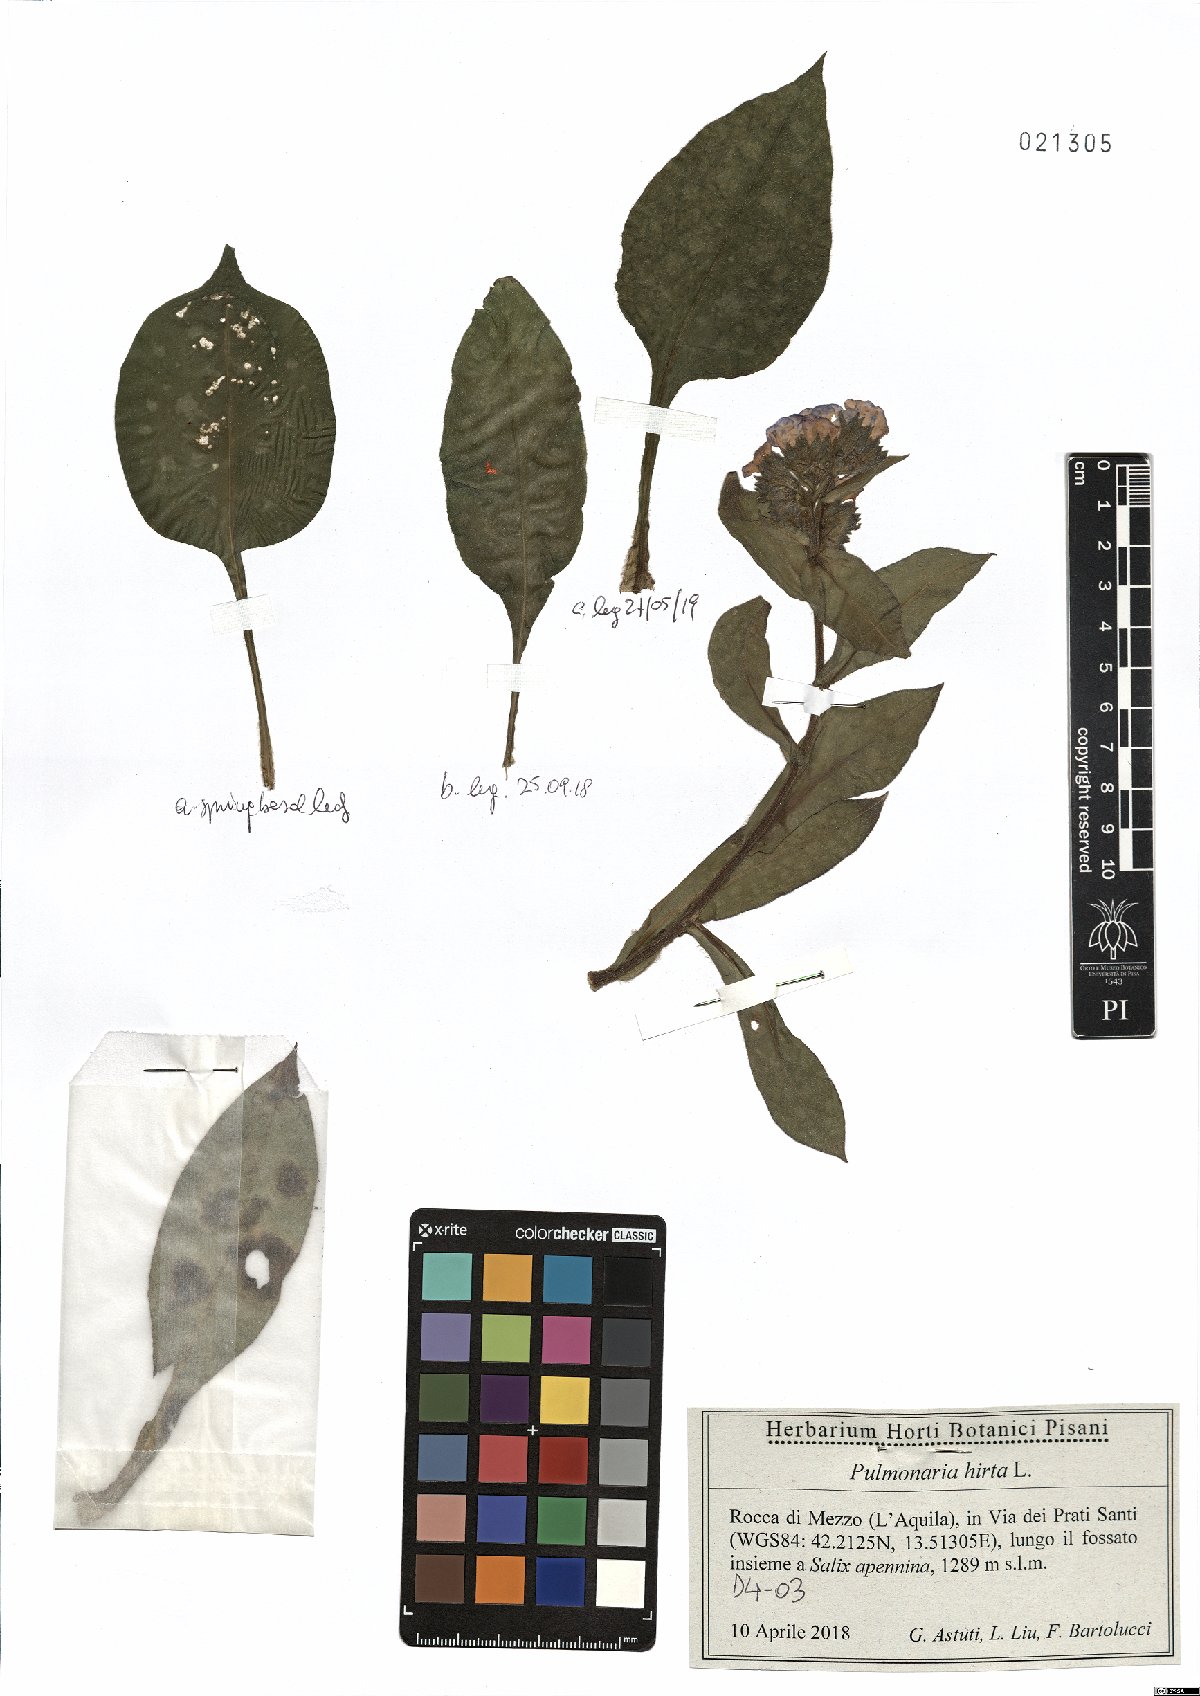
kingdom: Plantae
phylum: Tracheophyta
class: Magnoliopsida
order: Boraginales
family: Boraginaceae
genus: Pulmonaria
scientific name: Pulmonaria hirta
